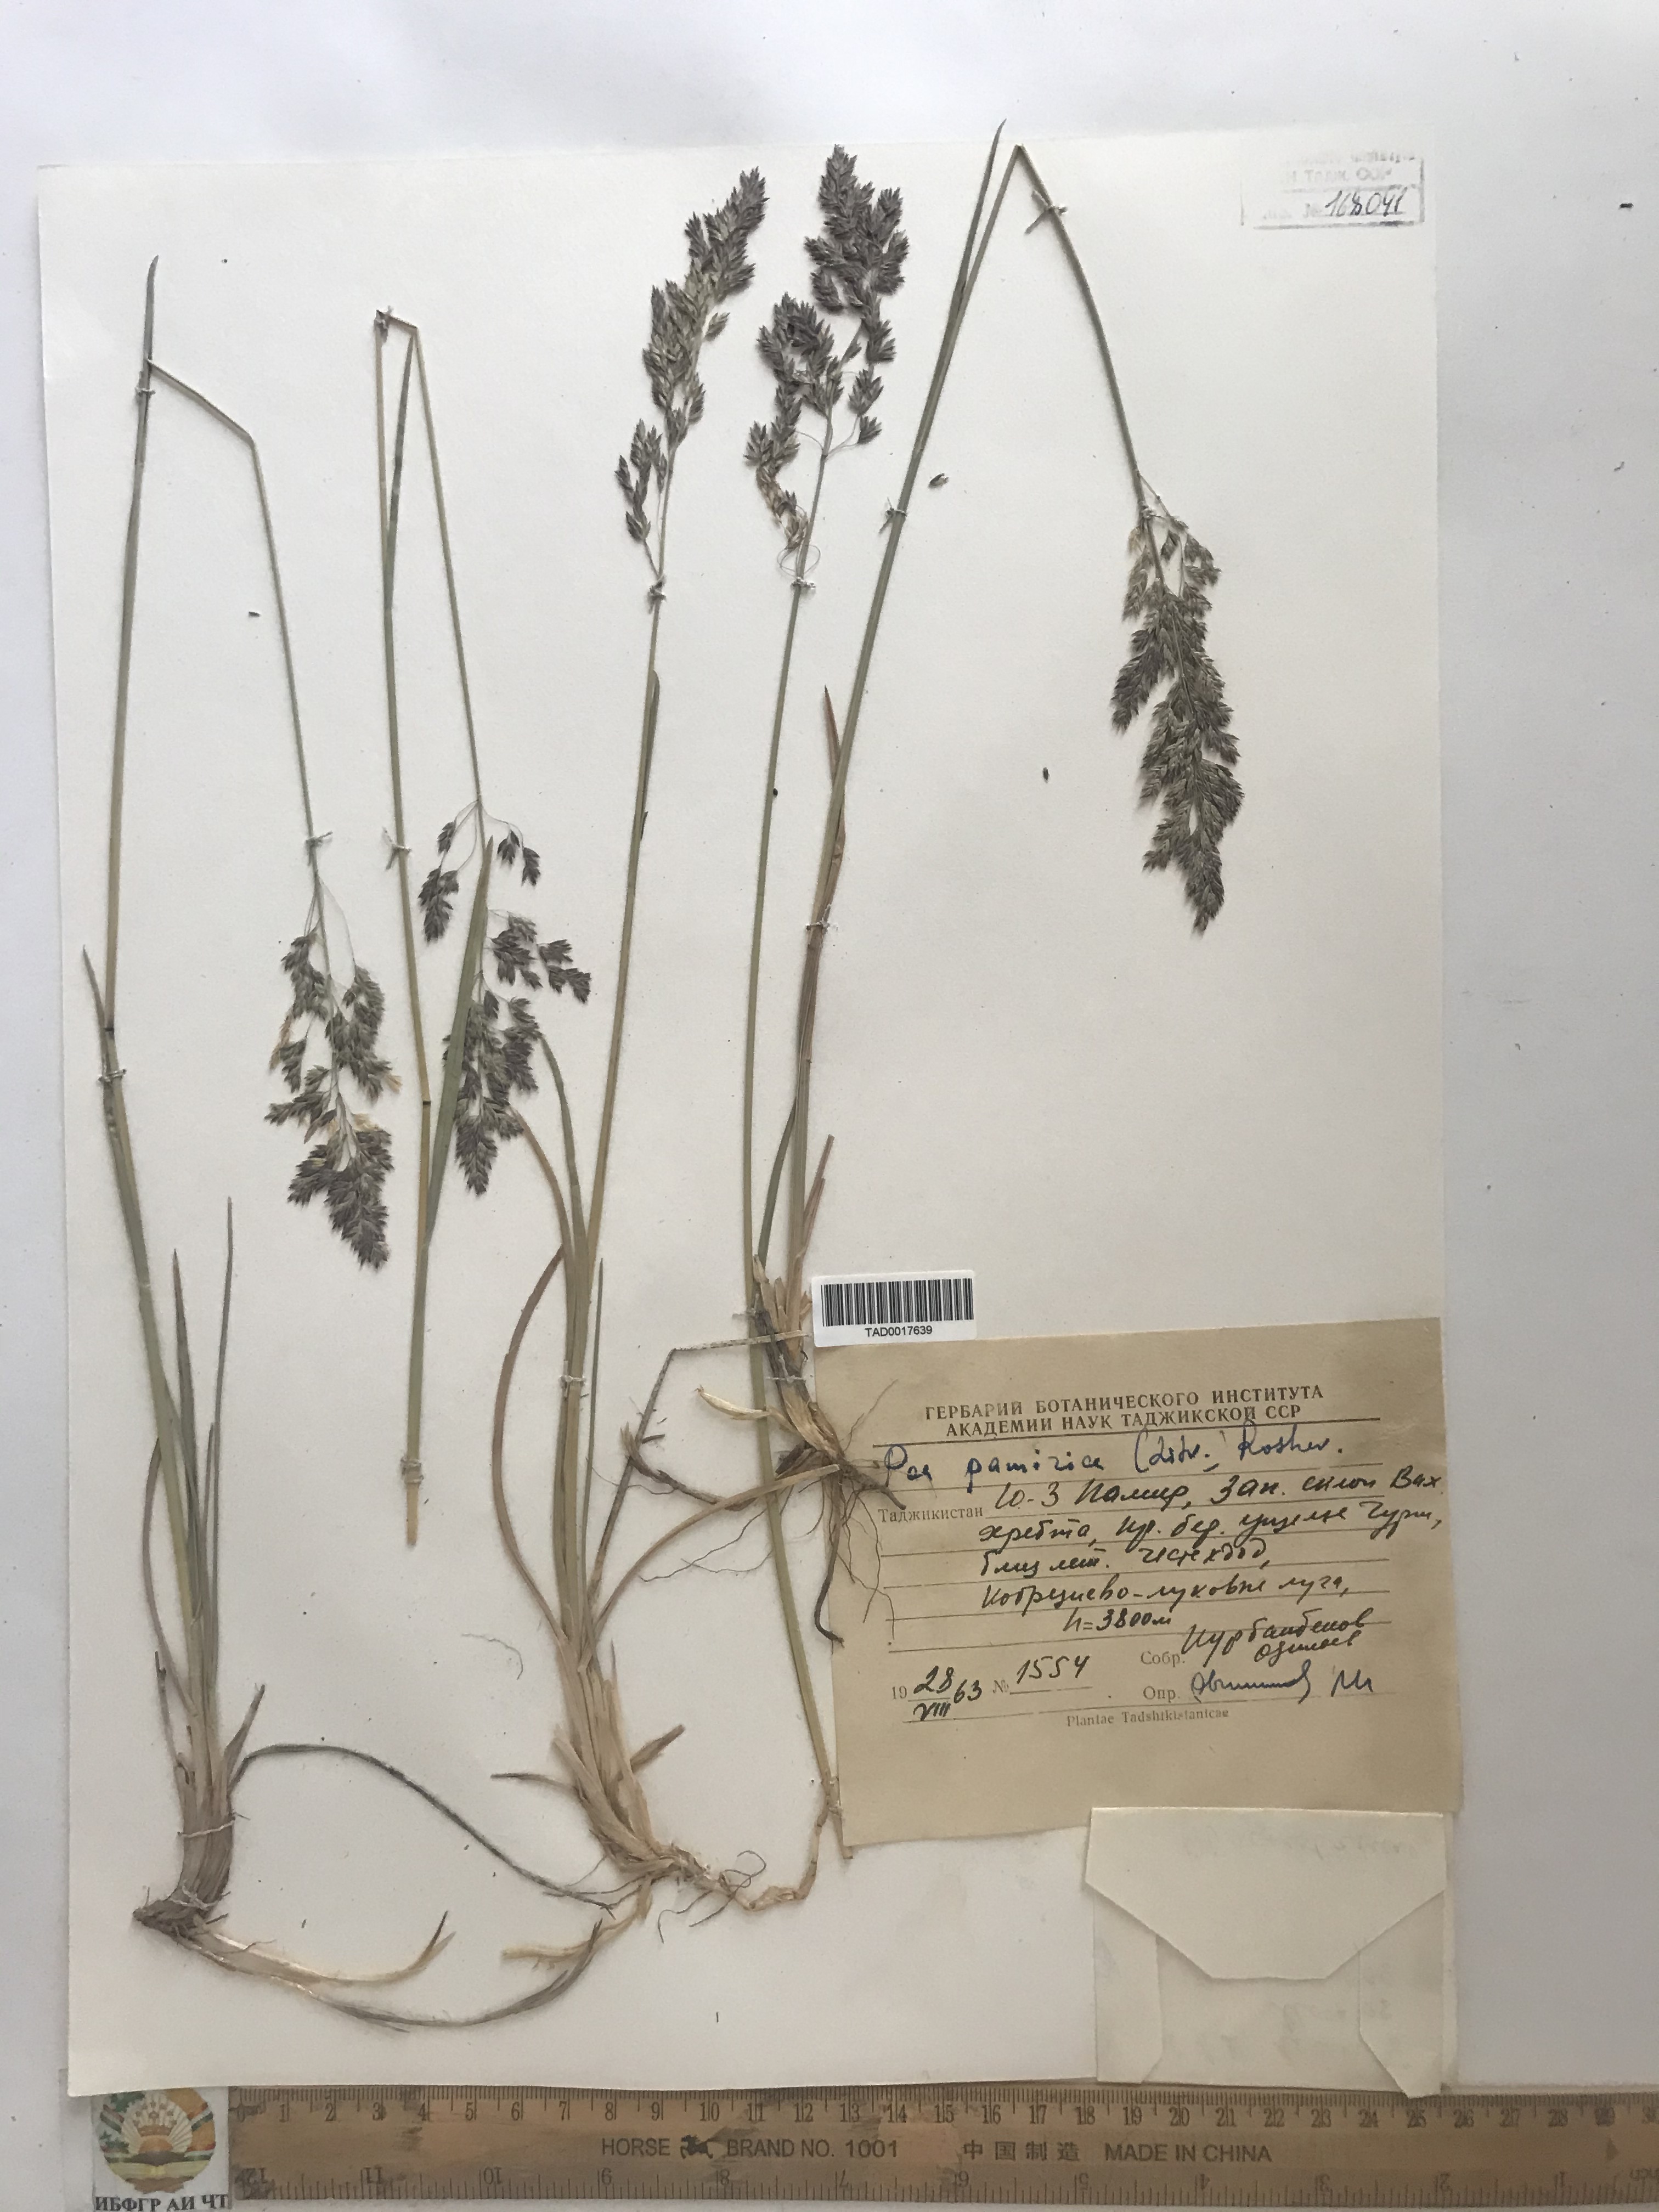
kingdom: Plantae
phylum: Tracheophyta
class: Liliopsida
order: Poales
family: Poaceae
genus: Poa
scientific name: Poa tianschanica
